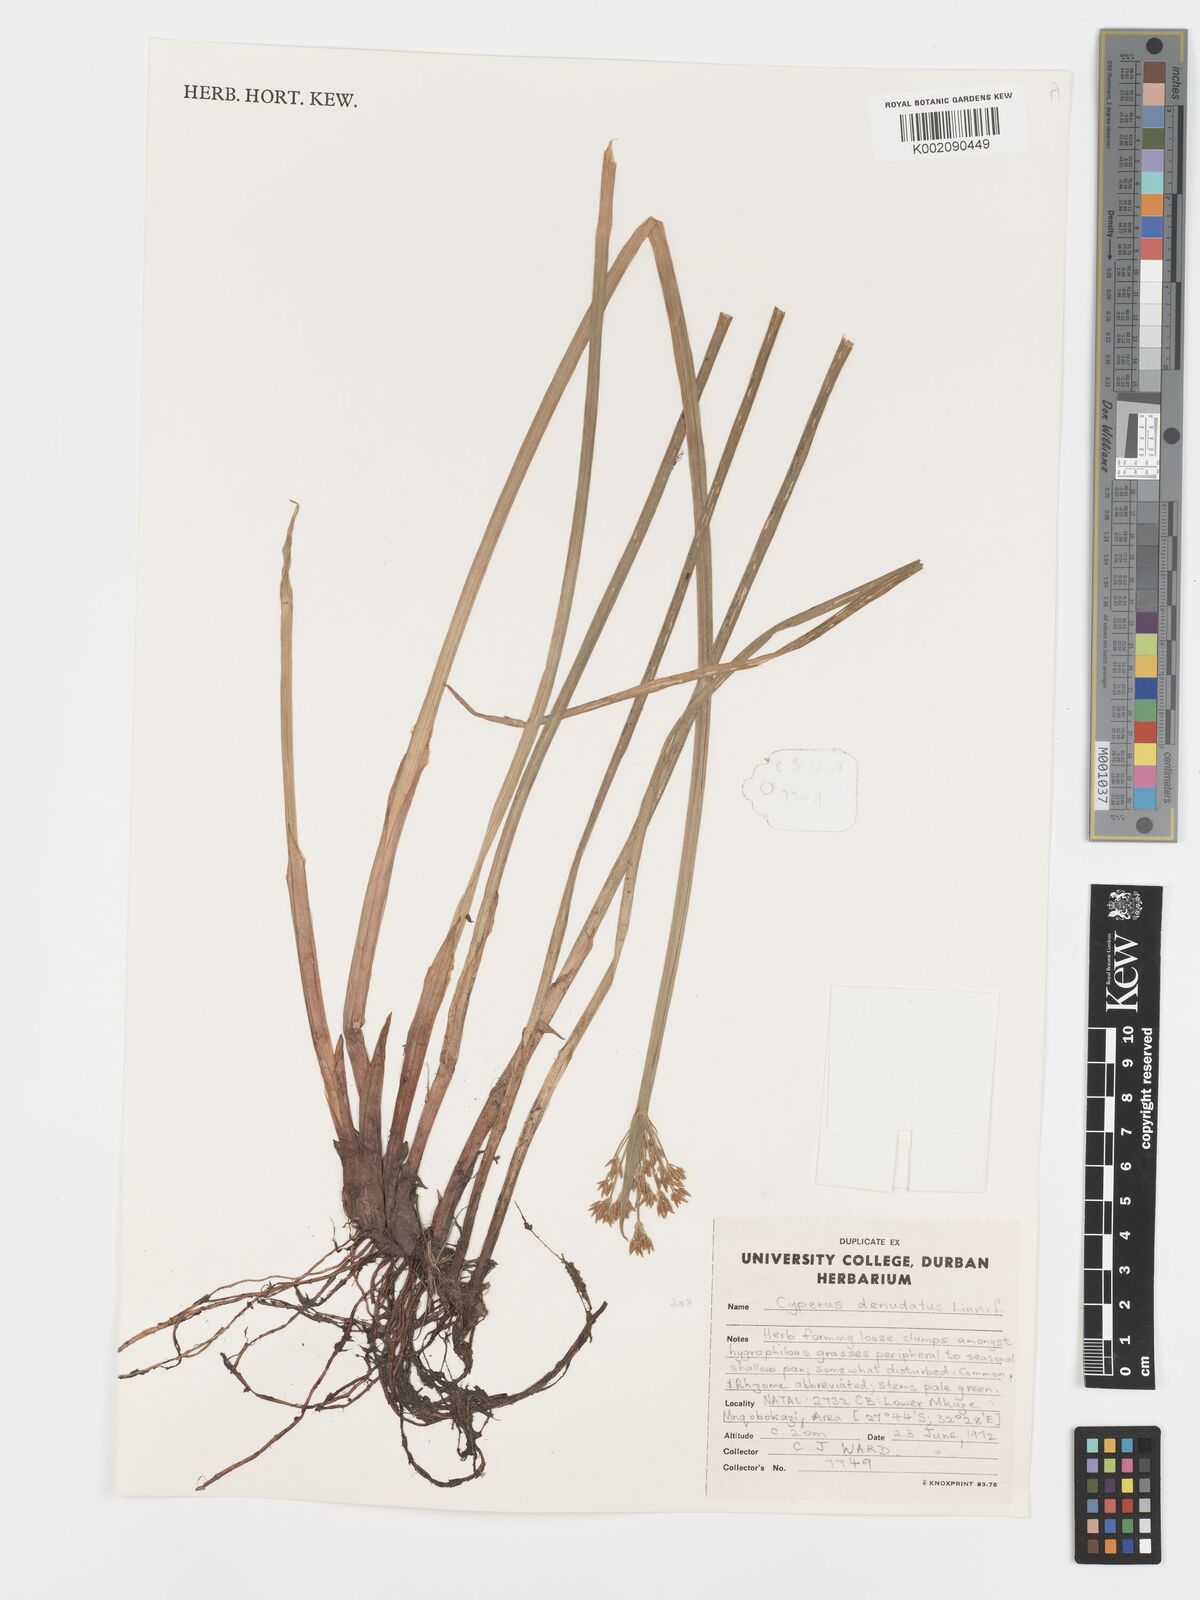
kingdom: Plantae
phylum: Tracheophyta
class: Liliopsida
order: Poales
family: Cyperaceae
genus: Cyperus
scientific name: Cyperus sphaerospermus
